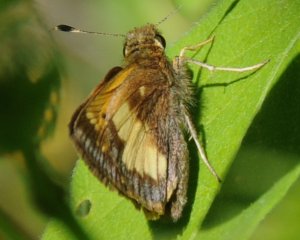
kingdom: Animalia
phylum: Arthropoda
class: Insecta
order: Lepidoptera
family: Hesperiidae
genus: Lon
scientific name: Lon hobomok
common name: Hobomok Skipper
